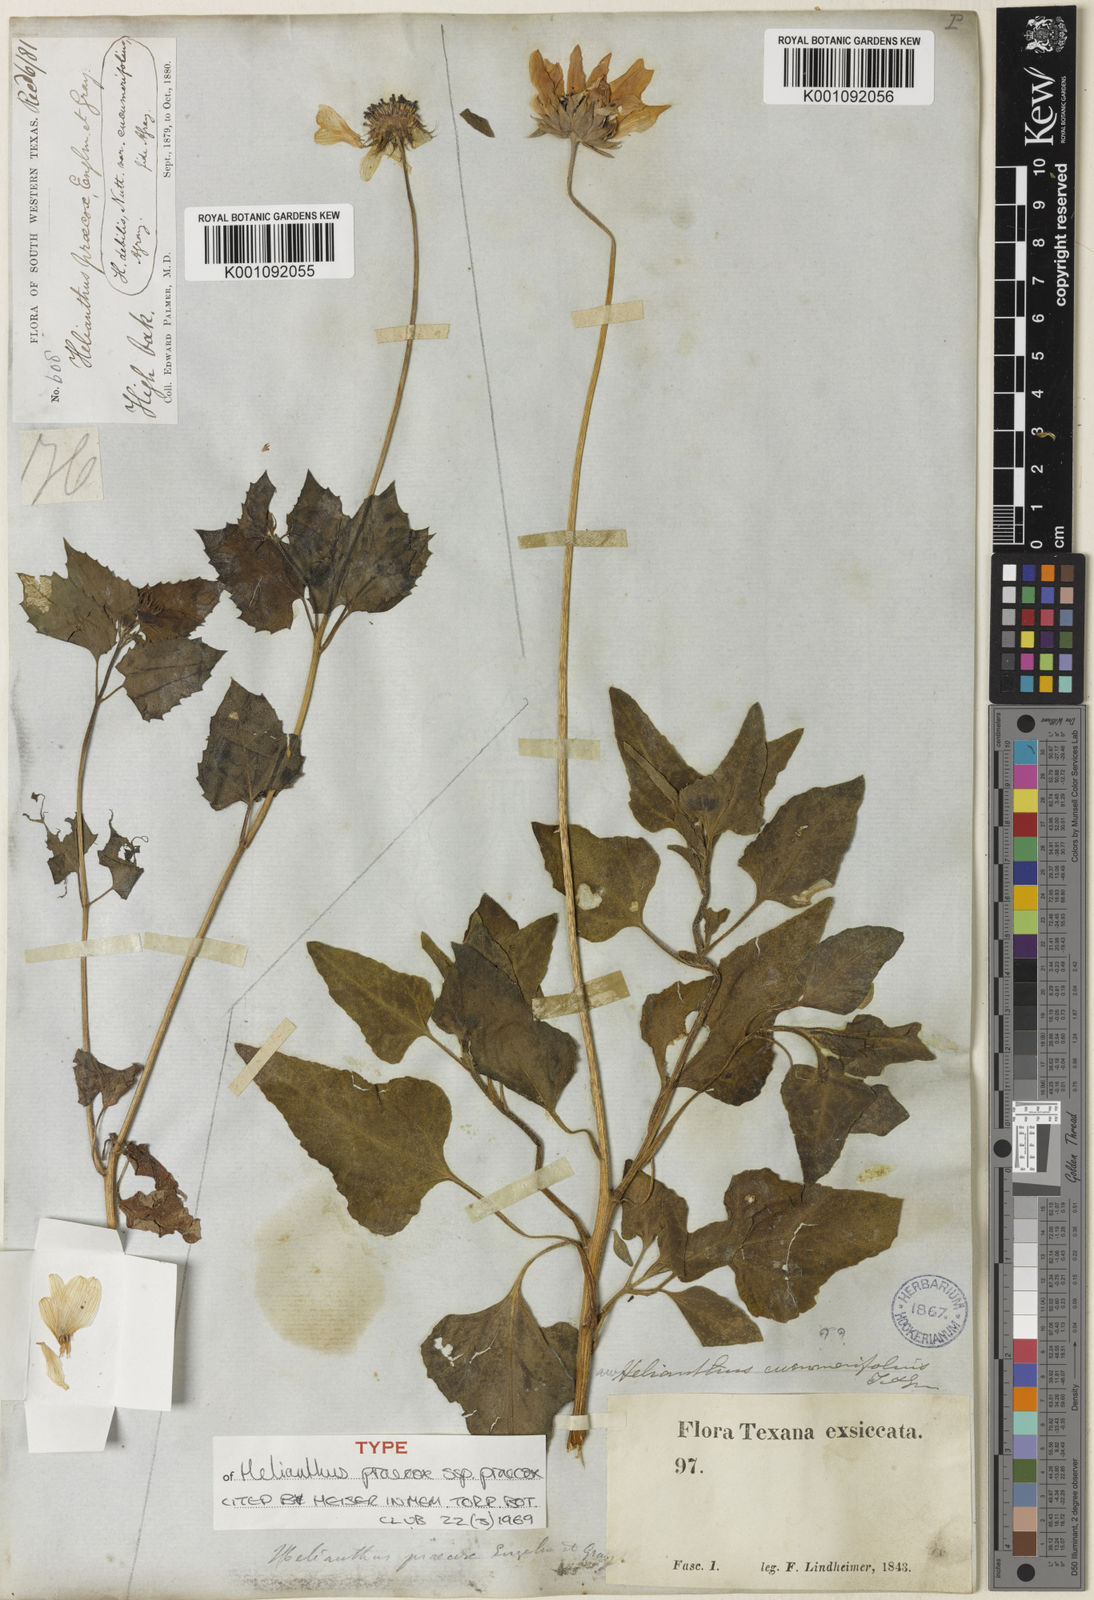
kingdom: Plantae
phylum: Tracheophyta
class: Magnoliopsida
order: Asterales
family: Asteraceae
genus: Helianthus
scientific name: Helianthus praecox
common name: Texas sunflower
